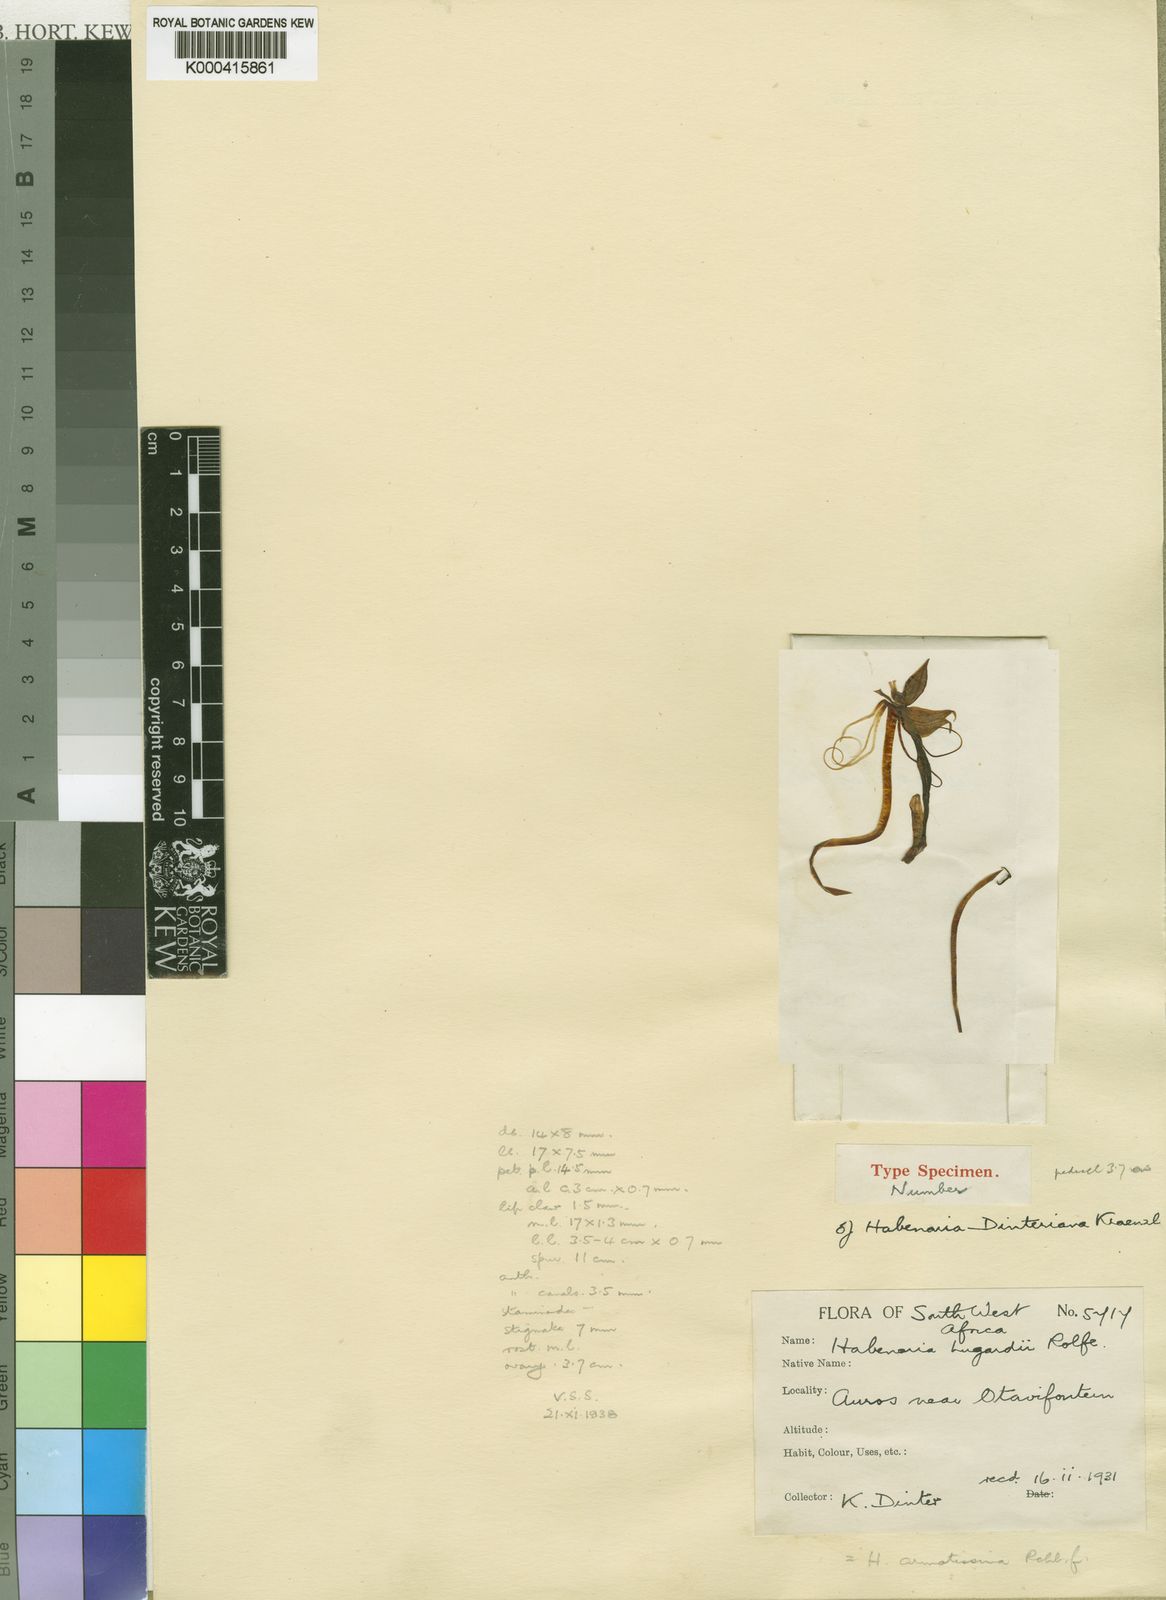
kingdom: Plantae
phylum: Tracheophyta
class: Liliopsida
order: Asparagales
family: Orchidaceae
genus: Habenaria
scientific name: Habenaria armatissima
